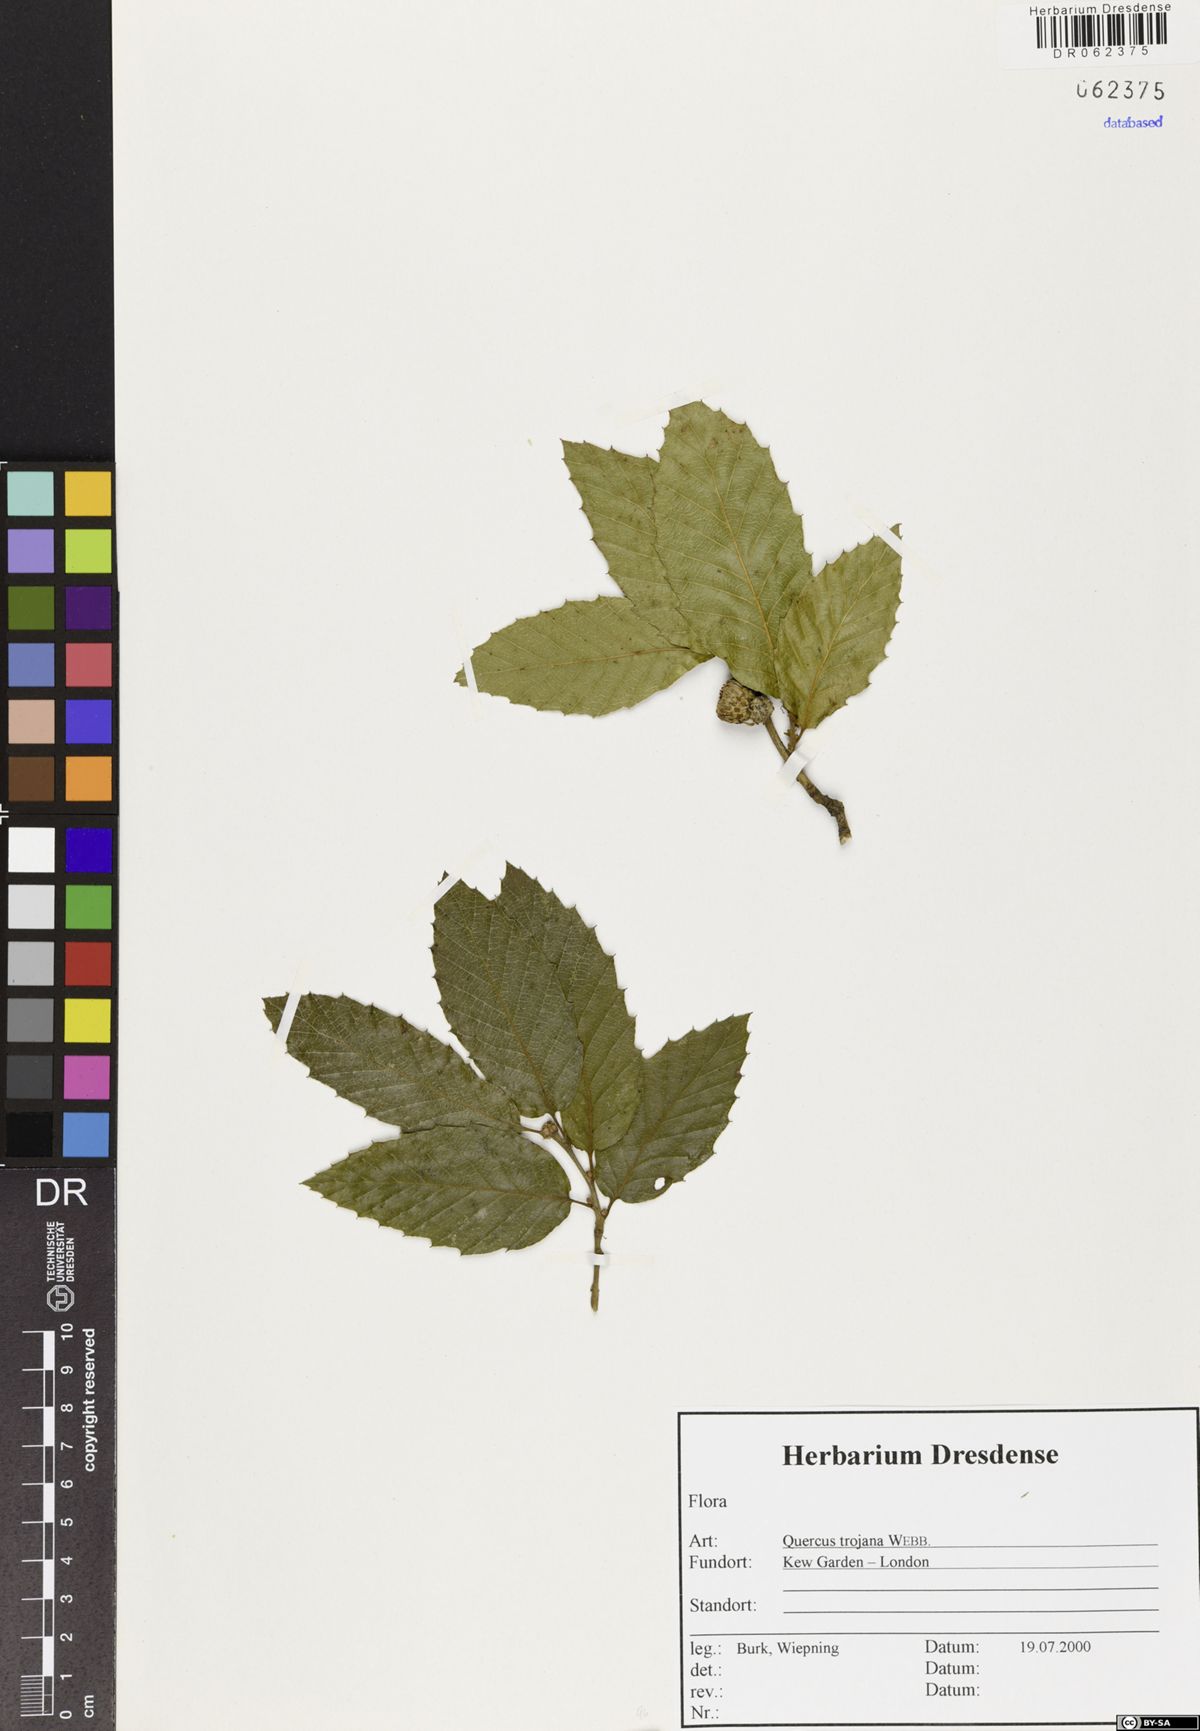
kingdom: Plantae
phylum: Tracheophyta
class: Magnoliopsida
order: Fagales
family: Fagaceae
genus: Quercus
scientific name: Quercus trojana
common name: Macedonian oak
